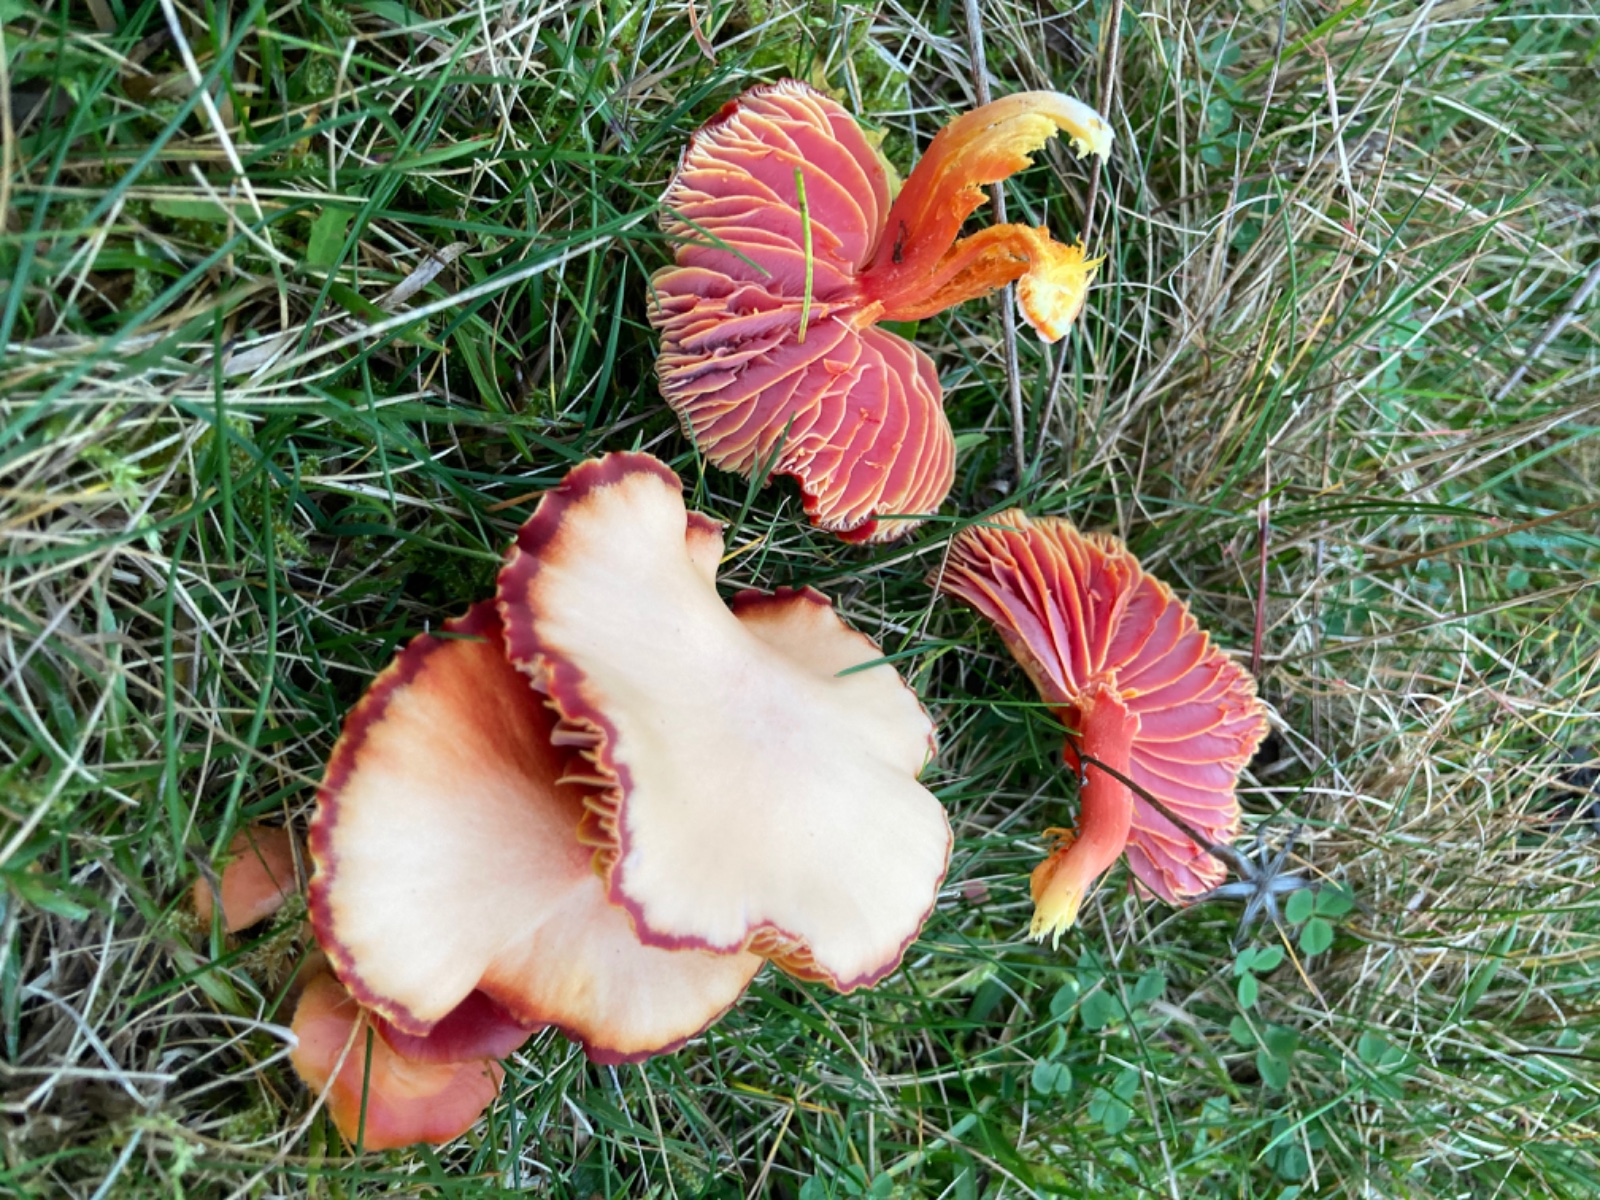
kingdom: Fungi
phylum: Basidiomycota
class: Agaricomycetes
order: Agaricales
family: Hygrophoraceae
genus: Hygrocybe
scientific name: Hygrocybe coccinea
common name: cinnober-vokshat
